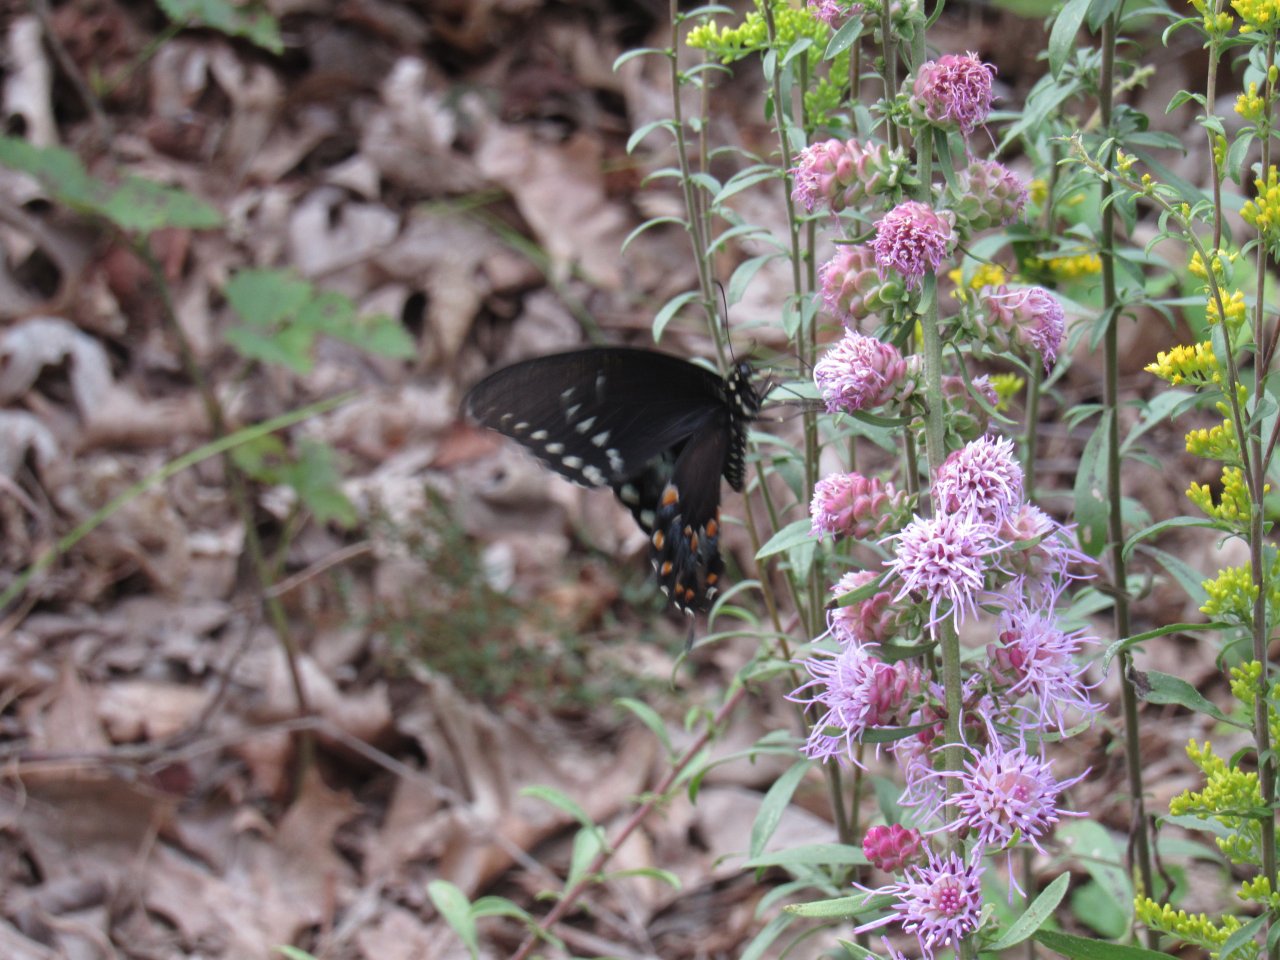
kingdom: Animalia
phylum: Arthropoda
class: Insecta
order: Lepidoptera
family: Papilionidae
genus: Pterourus
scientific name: Pterourus troilus
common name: Spicebush Swallowtail
